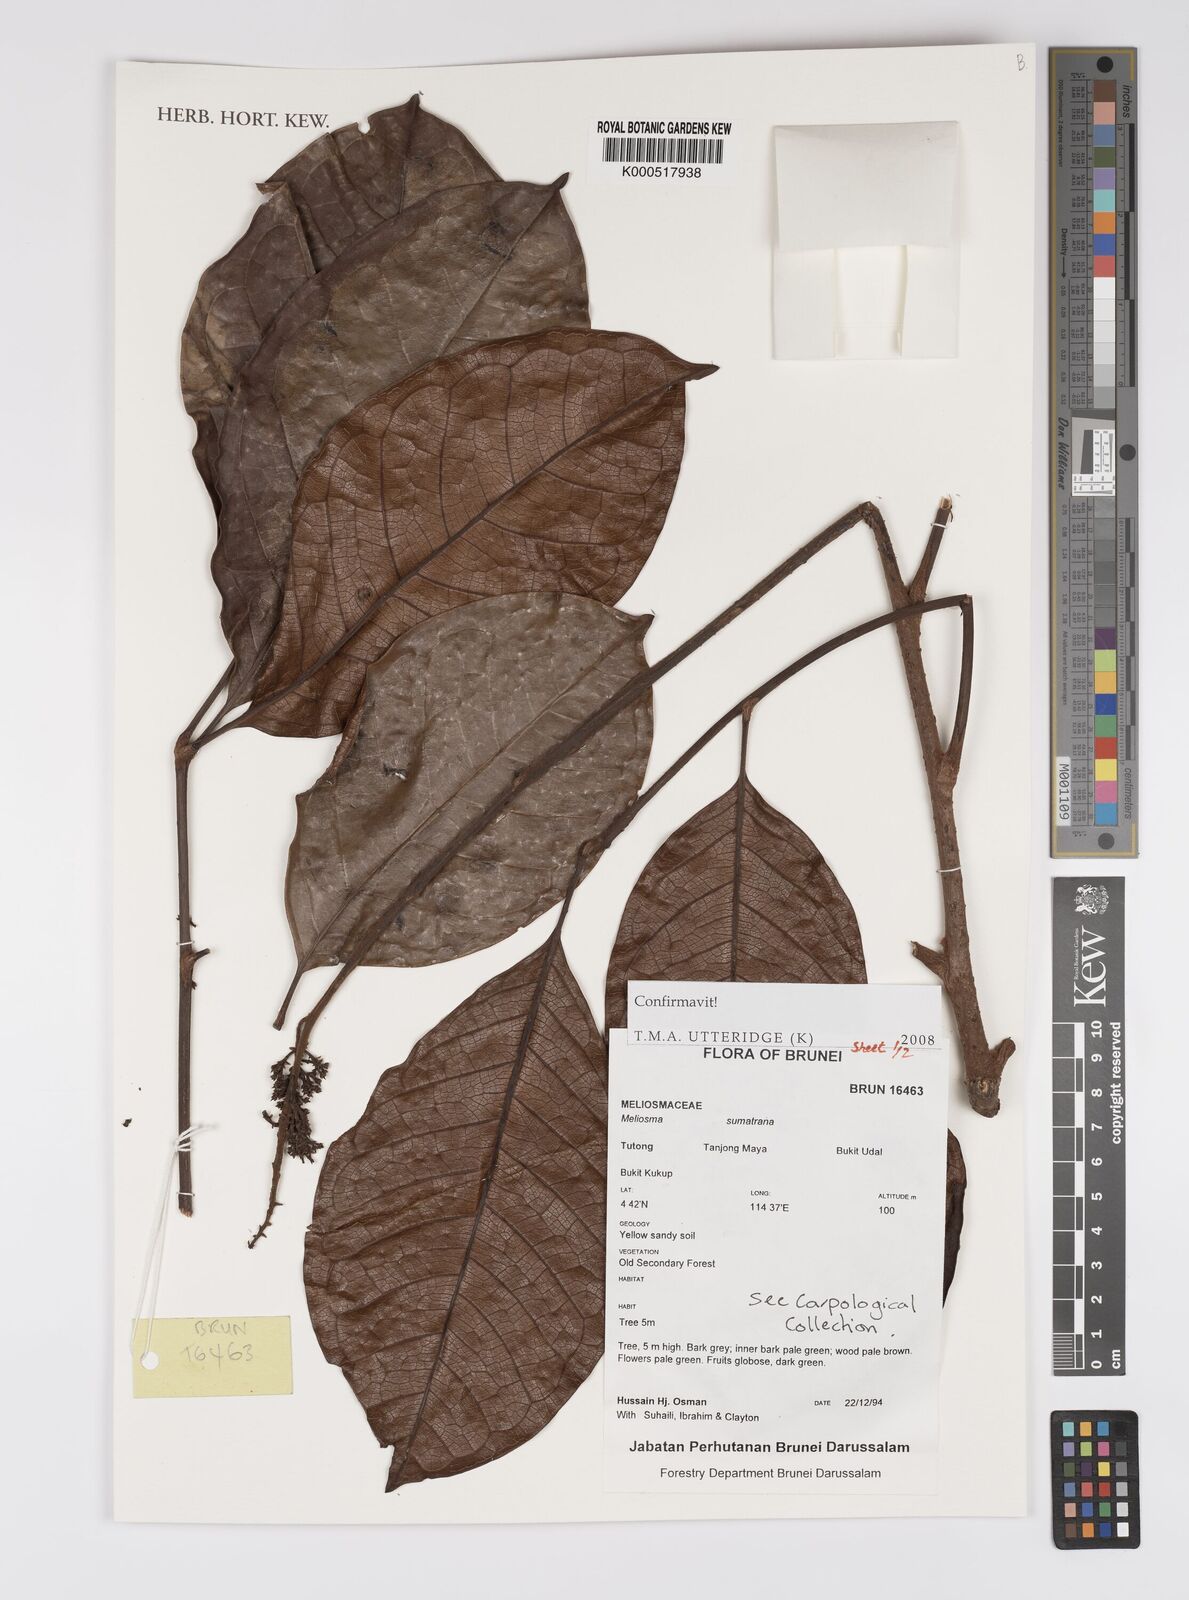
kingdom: Plantae
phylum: Tracheophyta
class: Magnoliopsida
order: Proteales
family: Sabiaceae
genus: Meliosma
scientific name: Meliosma sumatrana
